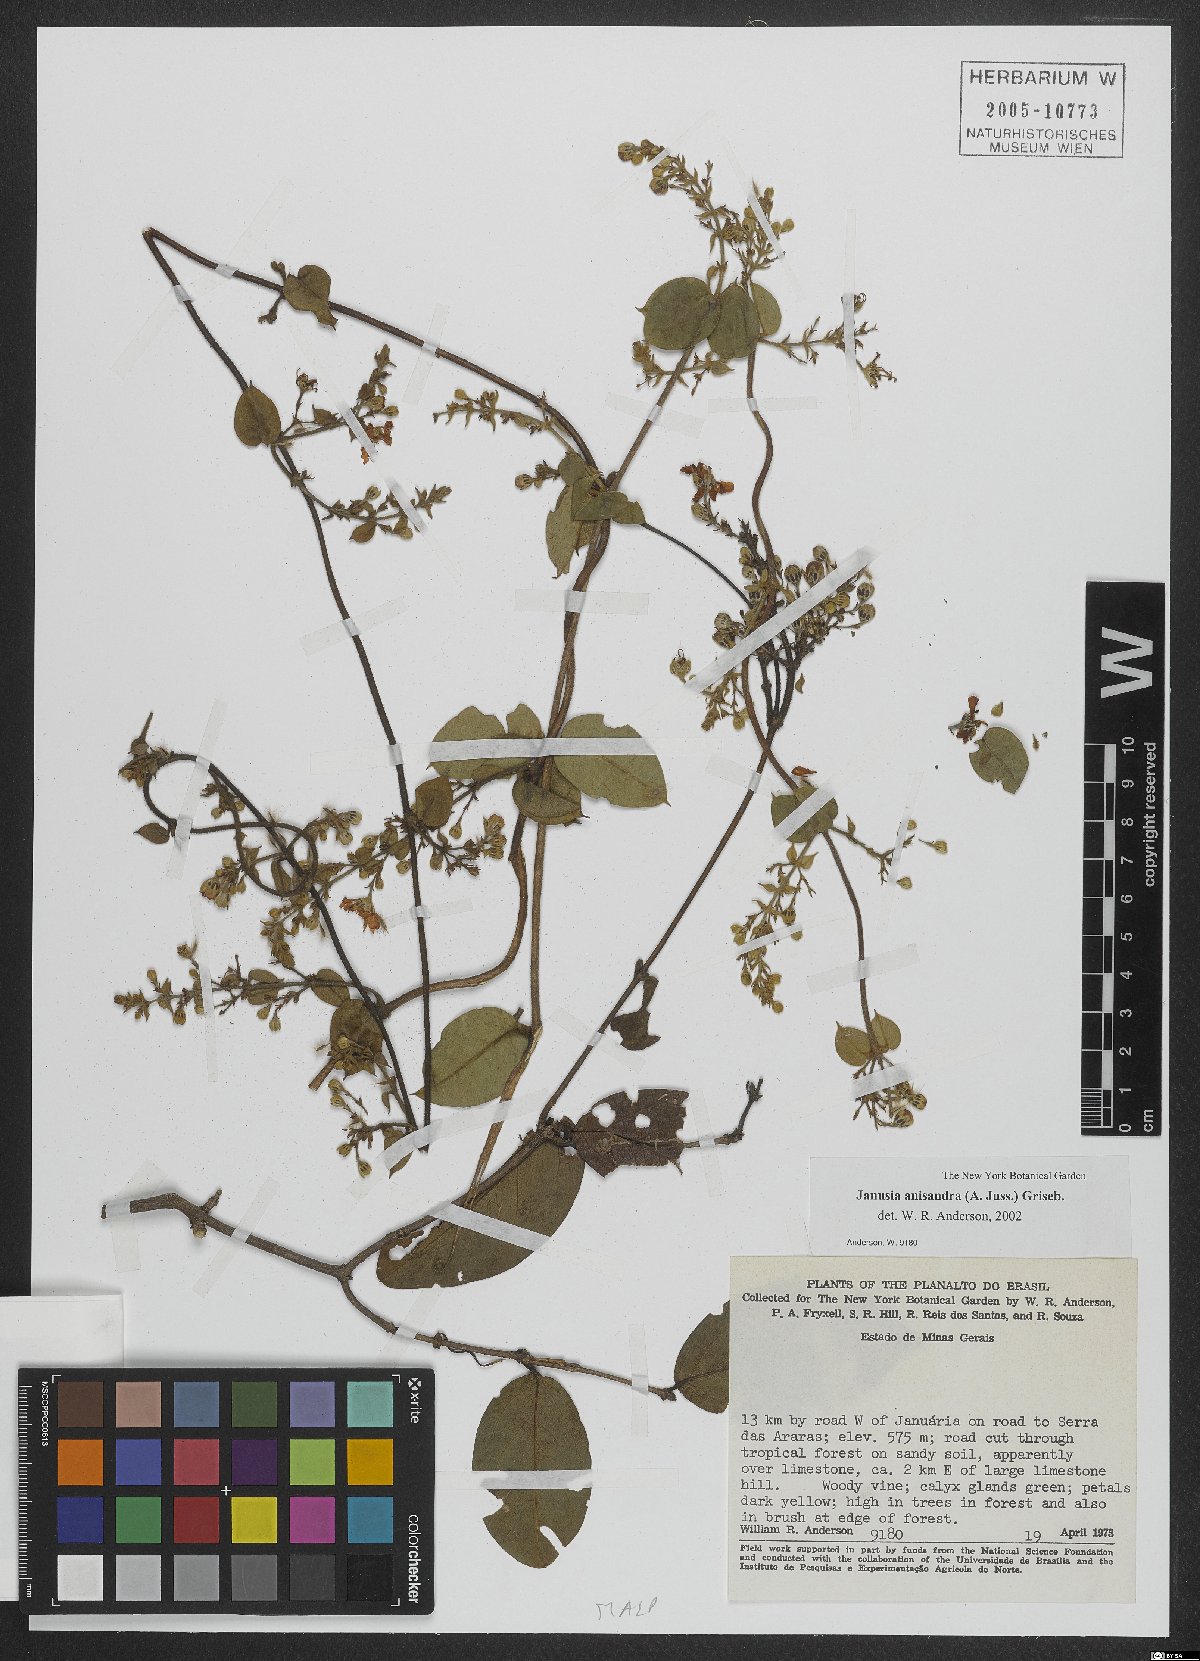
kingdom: Plantae
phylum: Tracheophyta
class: Magnoliopsida
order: Malpighiales
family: Malpighiaceae
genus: Janusia
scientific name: Janusia anisandra
